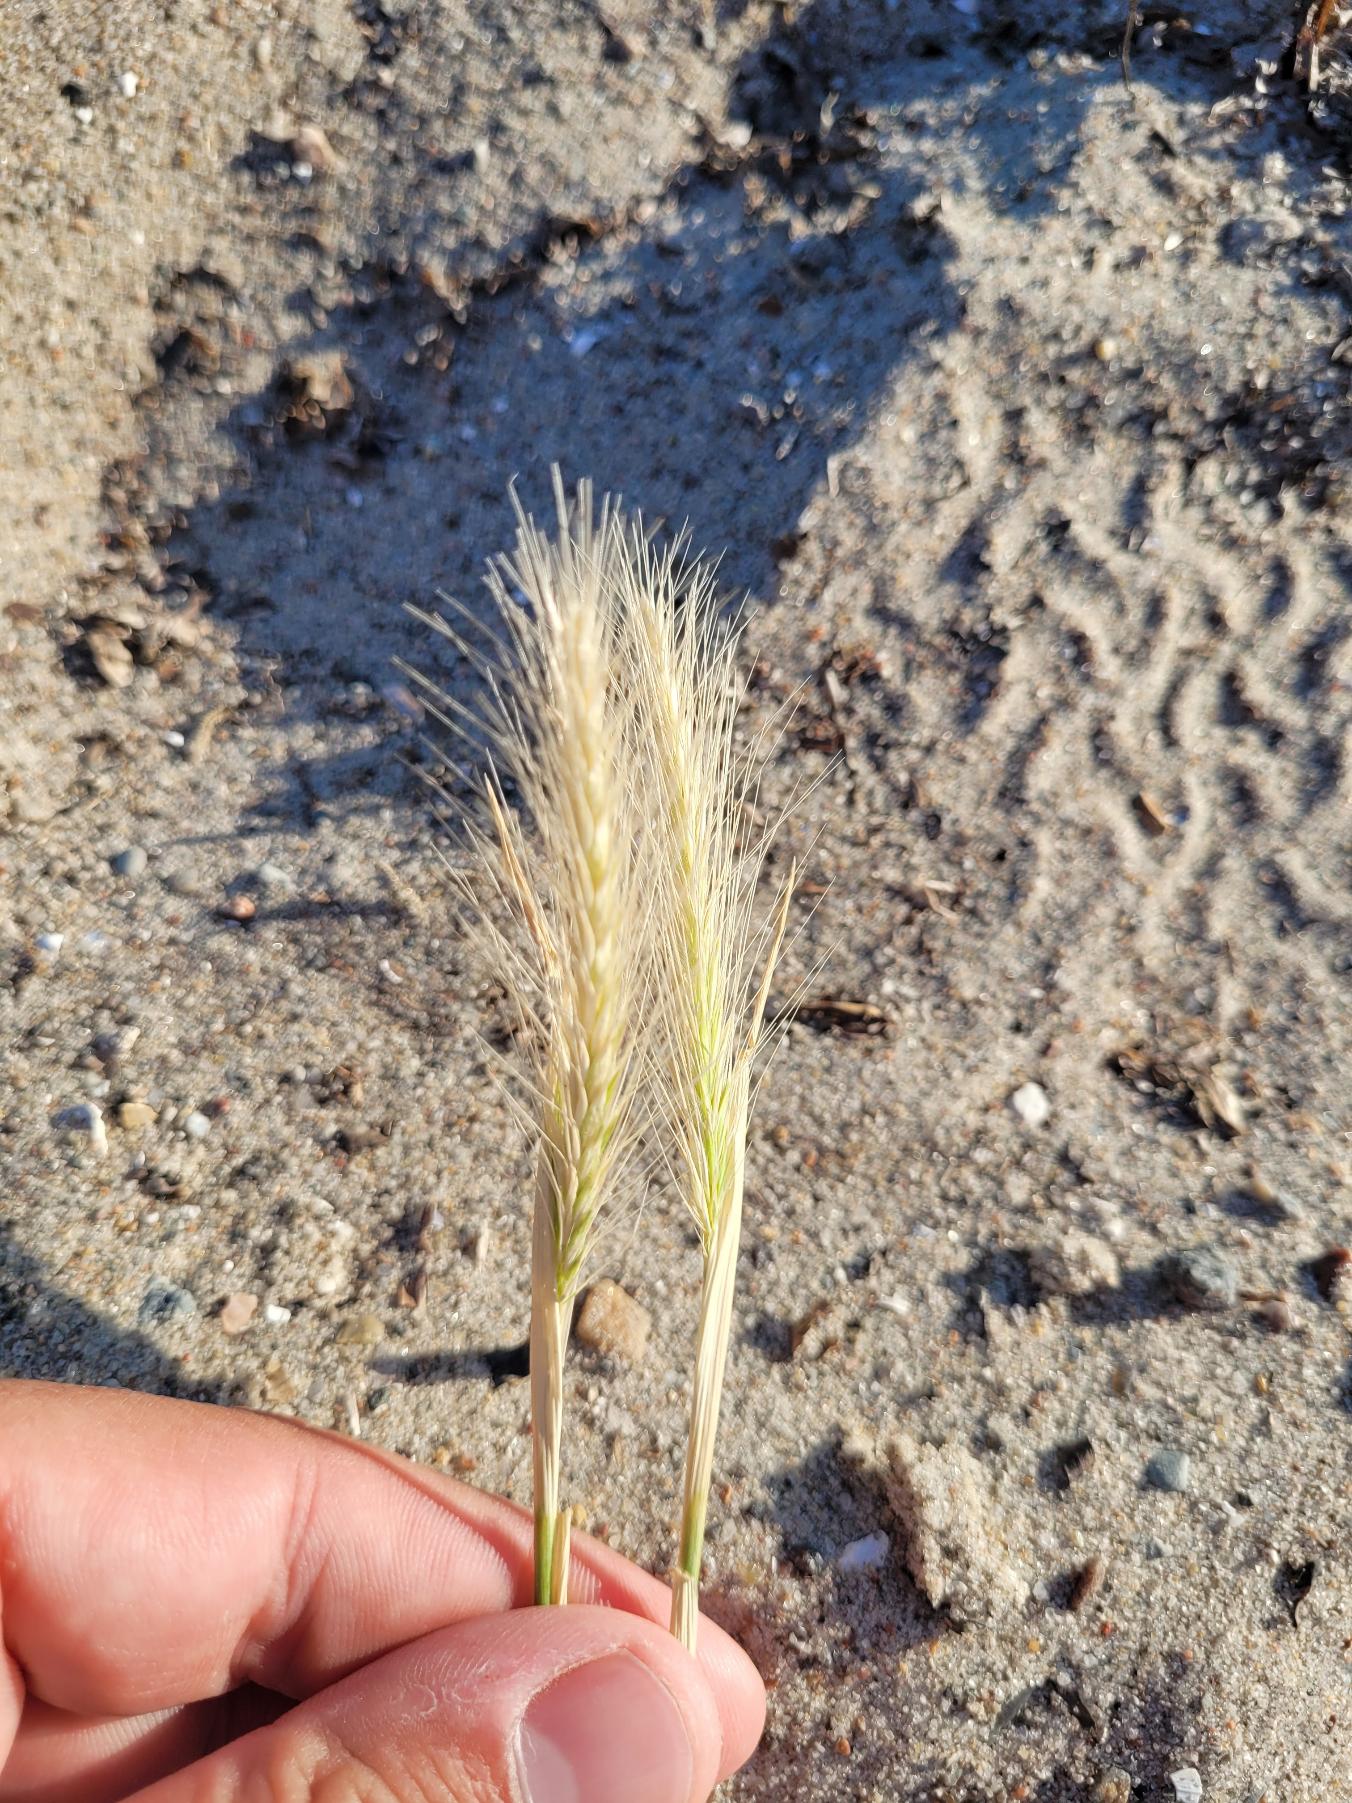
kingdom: Plantae
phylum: Tracheophyta
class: Liliopsida
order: Poales
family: Poaceae
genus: Hordeum
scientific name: Hordeum murinum
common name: Gold byg
